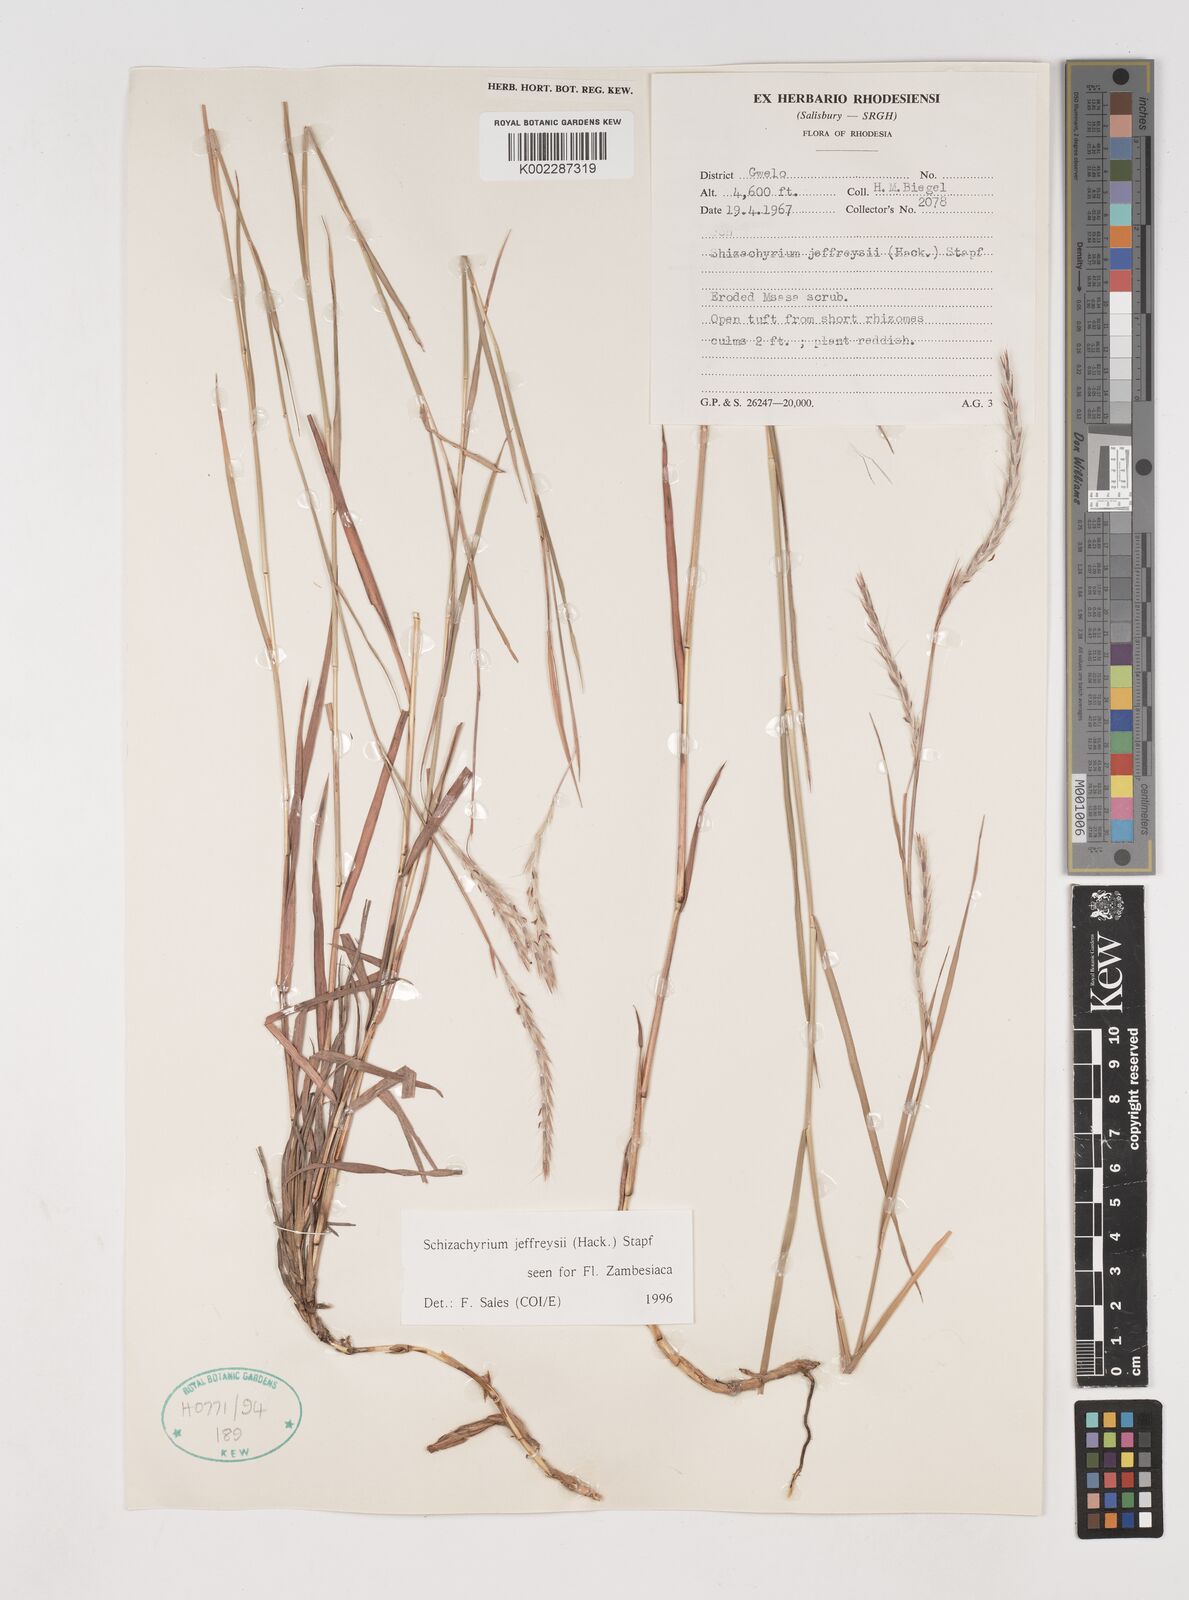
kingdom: Plantae
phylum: Tracheophyta
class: Liliopsida
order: Poales
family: Poaceae
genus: Schizachyrium
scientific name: Schizachyrium jeffreysii
